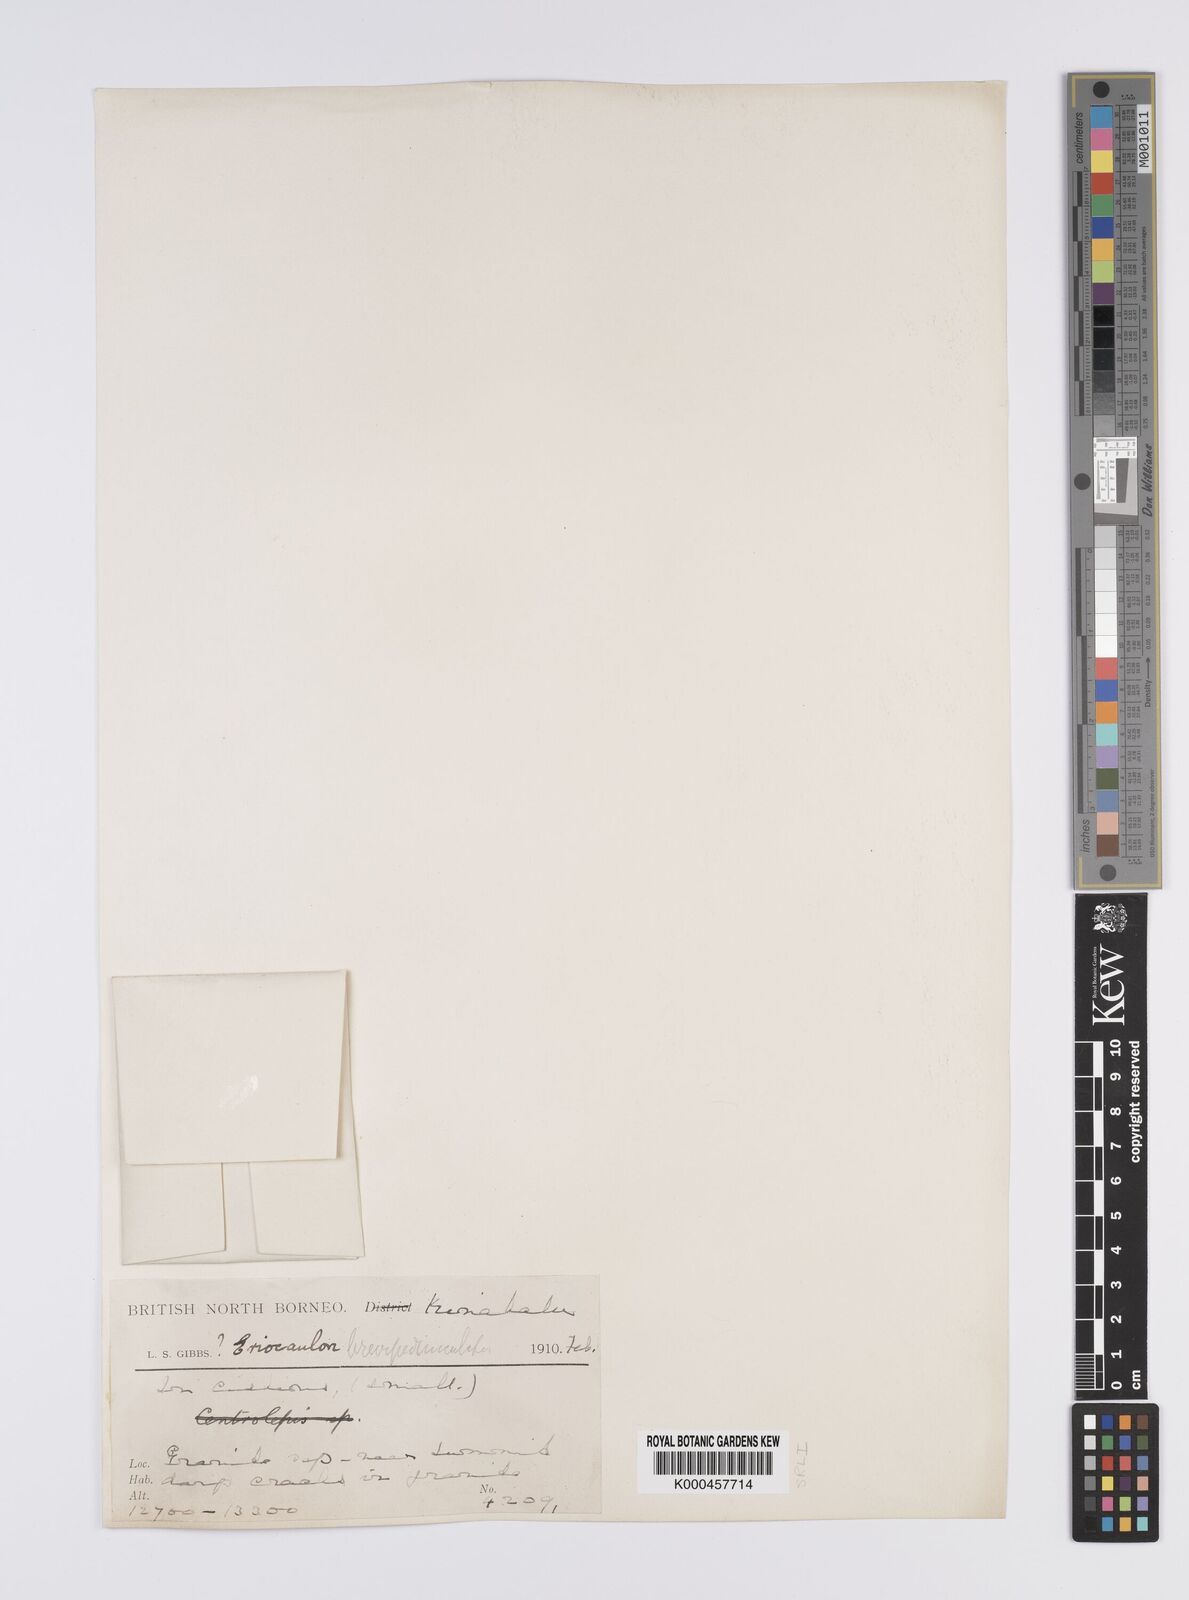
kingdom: Plantae
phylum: Tracheophyta
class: Liliopsida
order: Poales
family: Eriocaulaceae
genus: Eriocaulon
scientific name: Eriocaulon brevipedunculatum
